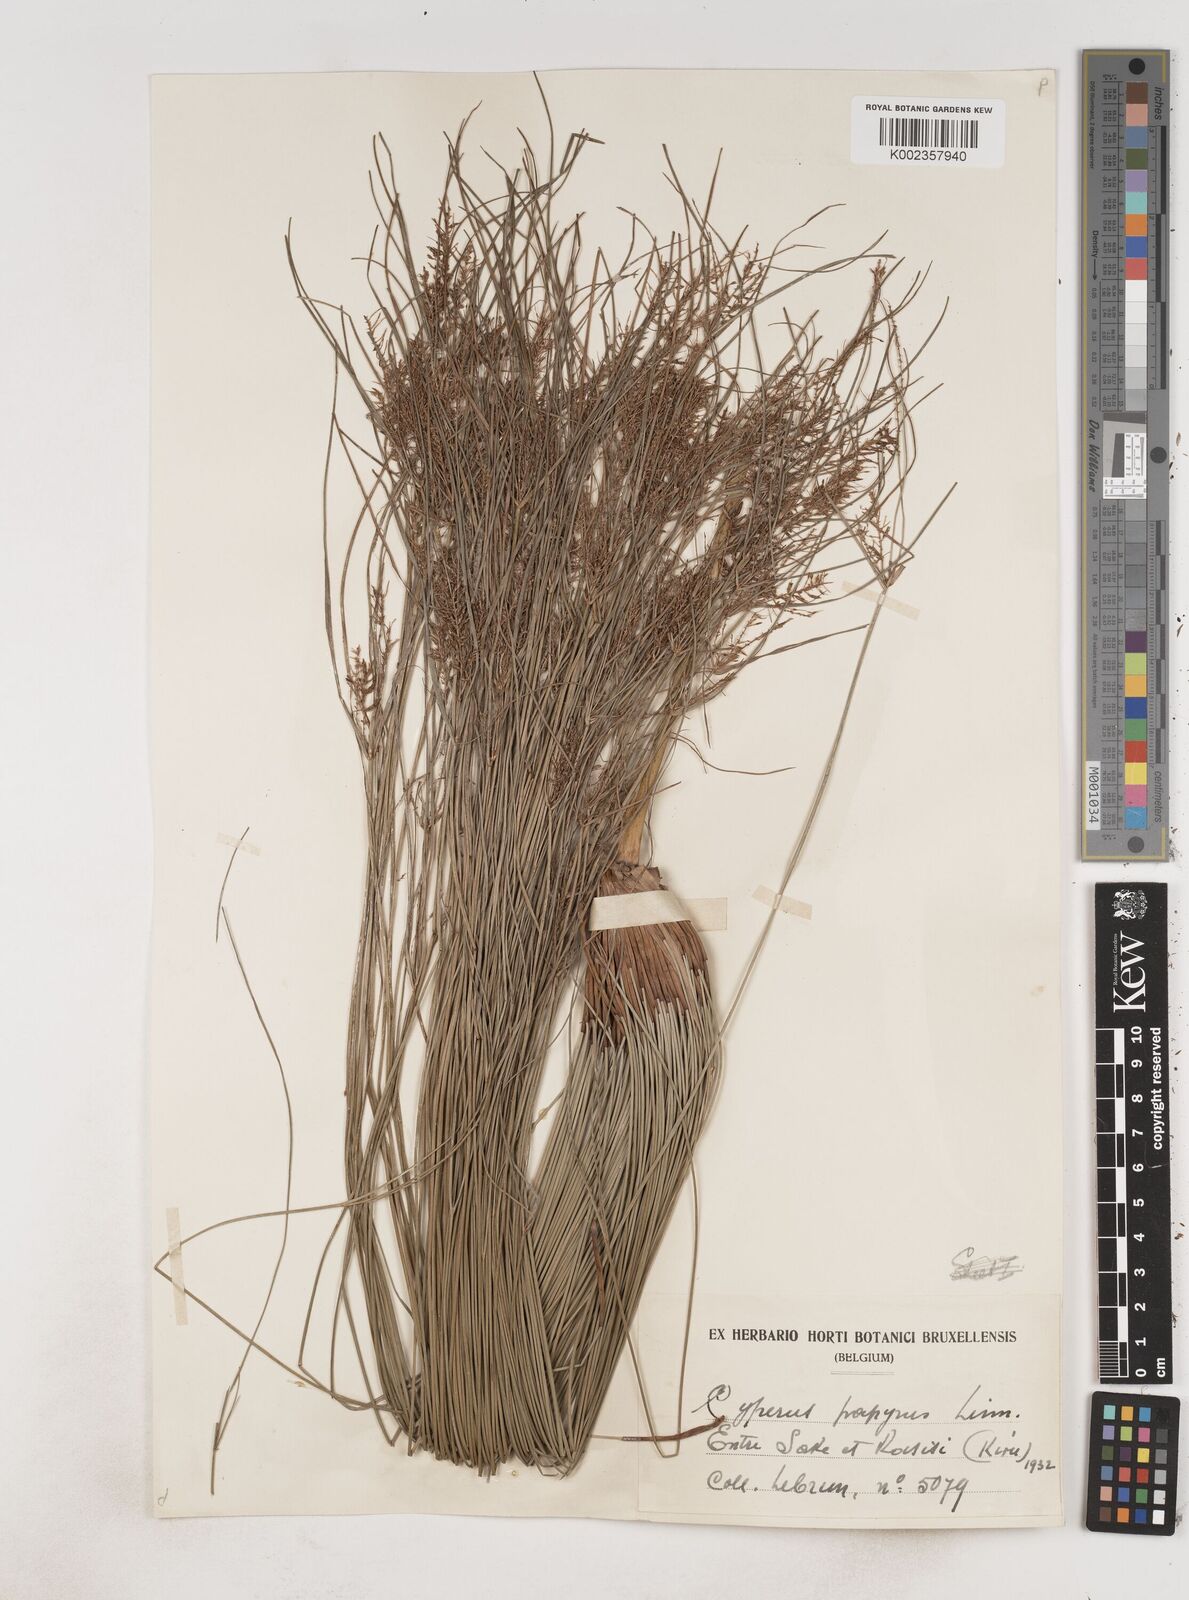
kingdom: Plantae
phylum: Tracheophyta
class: Liliopsida
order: Poales
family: Cyperaceae
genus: Cyperus
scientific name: Cyperus papyrus
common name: Papyrus
